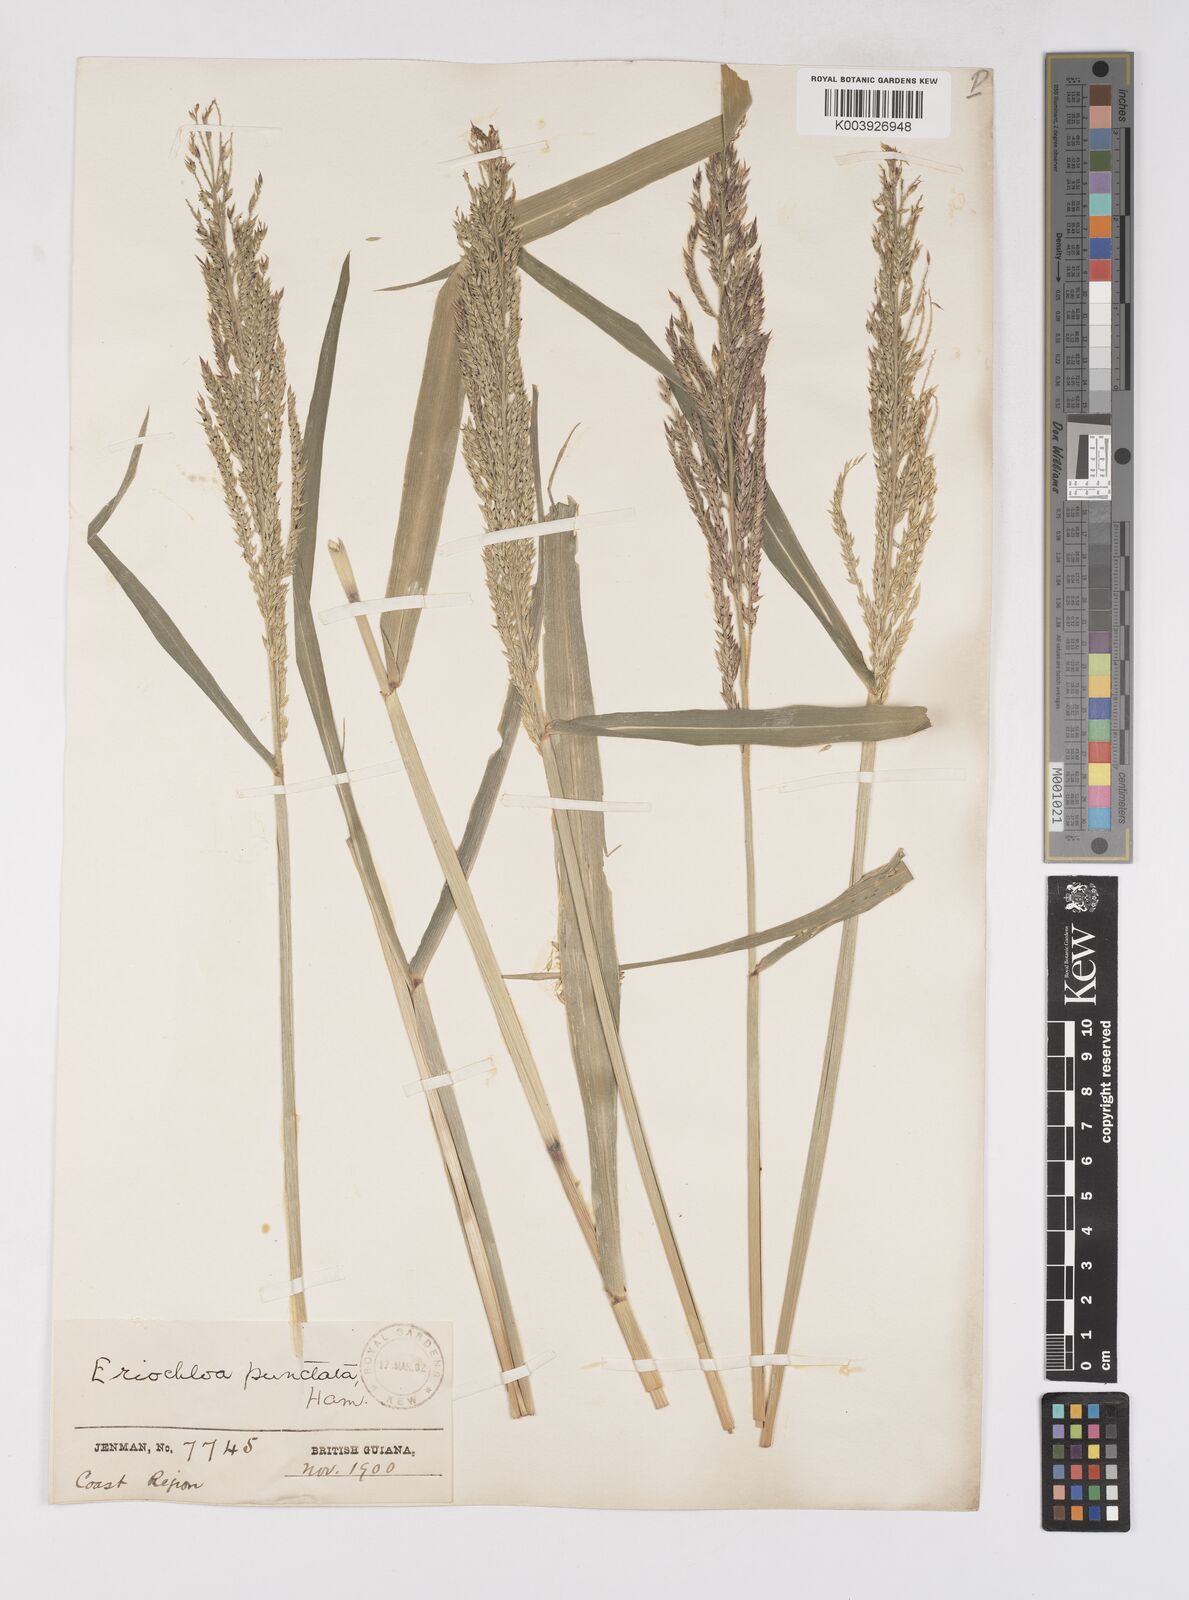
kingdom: Plantae
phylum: Tracheophyta
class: Liliopsida
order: Poales
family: Poaceae
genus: Eriochloa
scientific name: Eriochloa punctata
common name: Louisiana cupgrass
